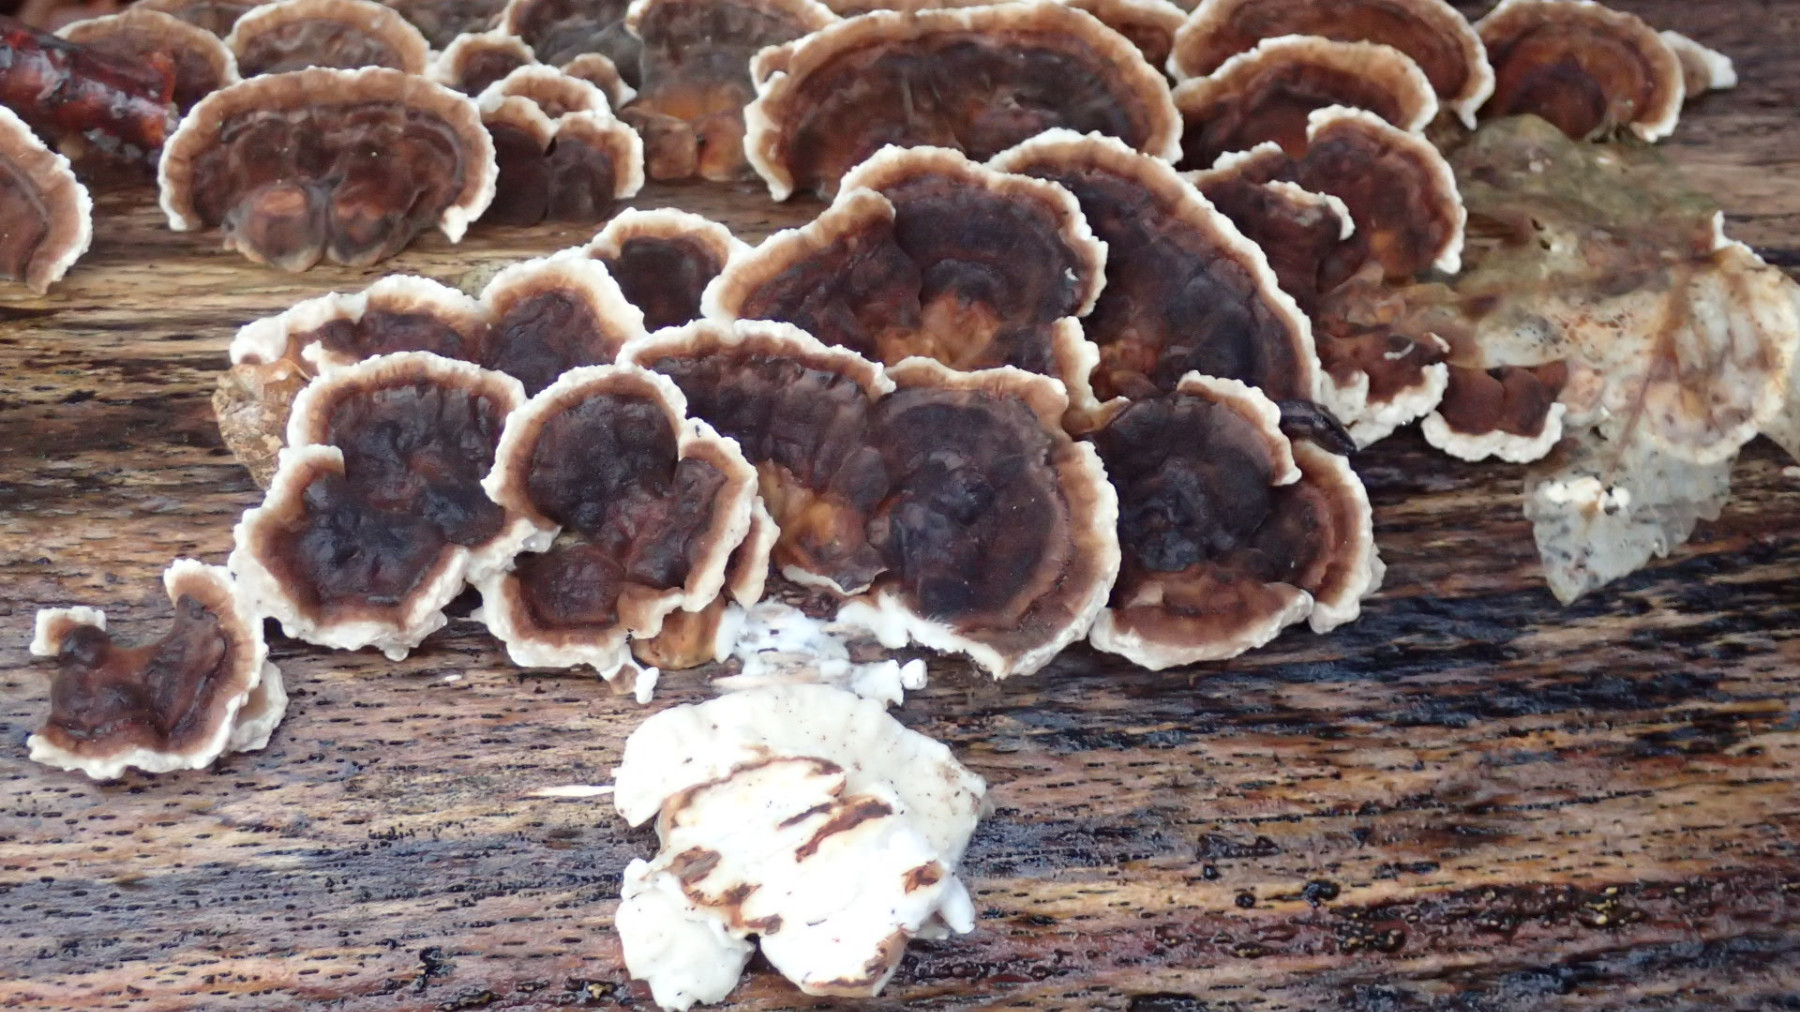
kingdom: Fungi
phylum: Basidiomycota
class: Agaricomycetes
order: Polyporales
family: Polyporaceae
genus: Trametes
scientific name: Trametes versicolor
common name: broget læderporesvamp
